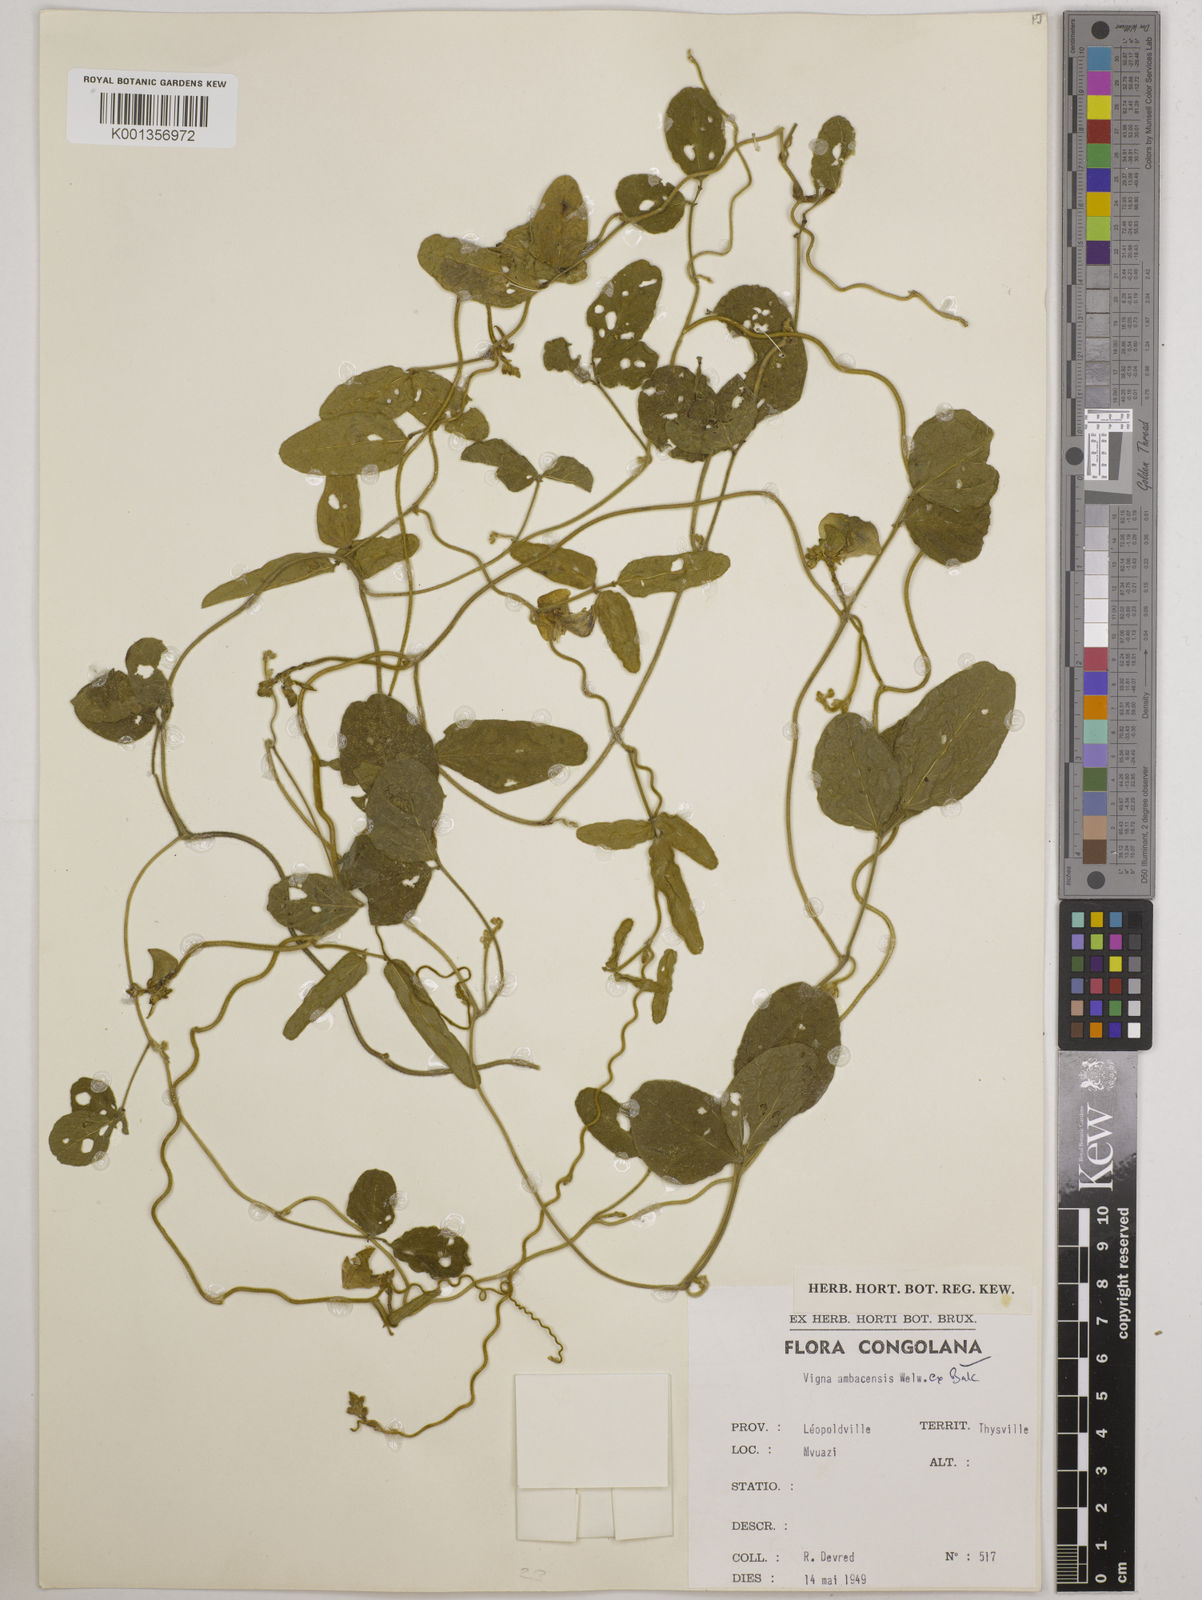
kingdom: Plantae
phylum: Tracheophyta
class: Magnoliopsida
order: Fabales
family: Fabaceae
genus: Vigna
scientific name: Vigna ambacensis
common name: Tsarkiyan zomo
